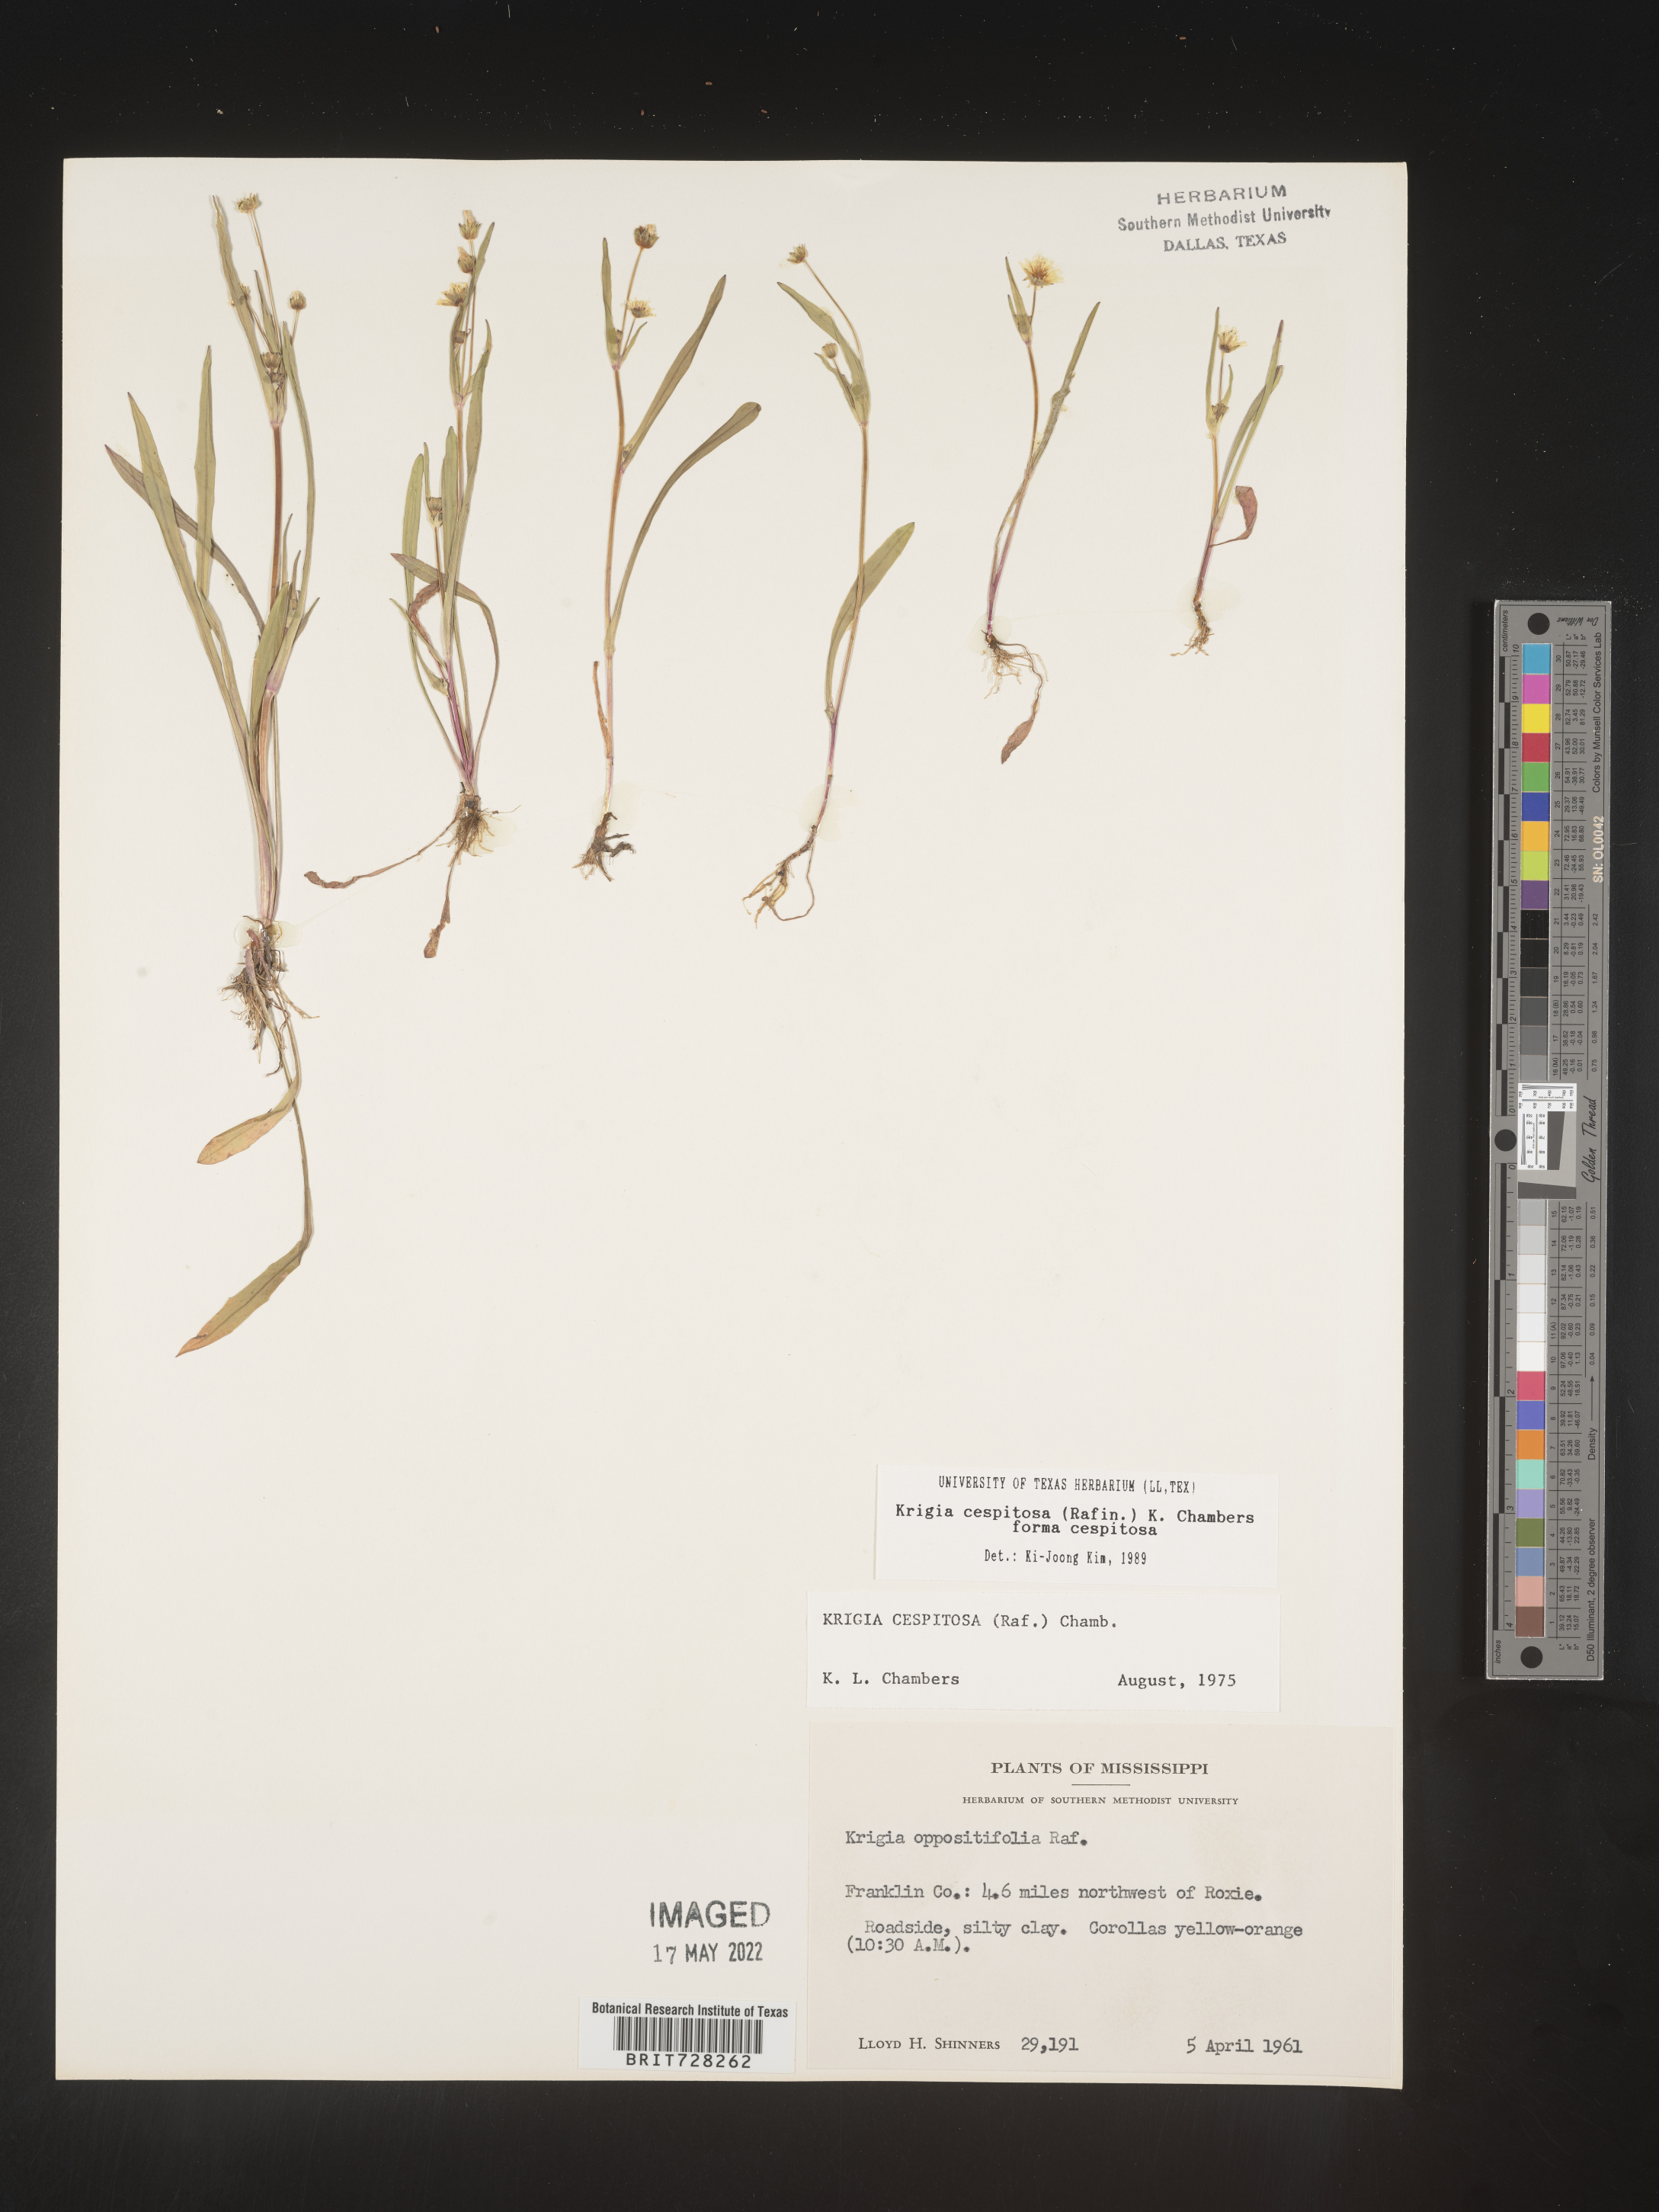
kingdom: Plantae
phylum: Tracheophyta
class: Magnoliopsida
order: Asterales
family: Asteraceae
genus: Krigia
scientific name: Krigia caespitosa
